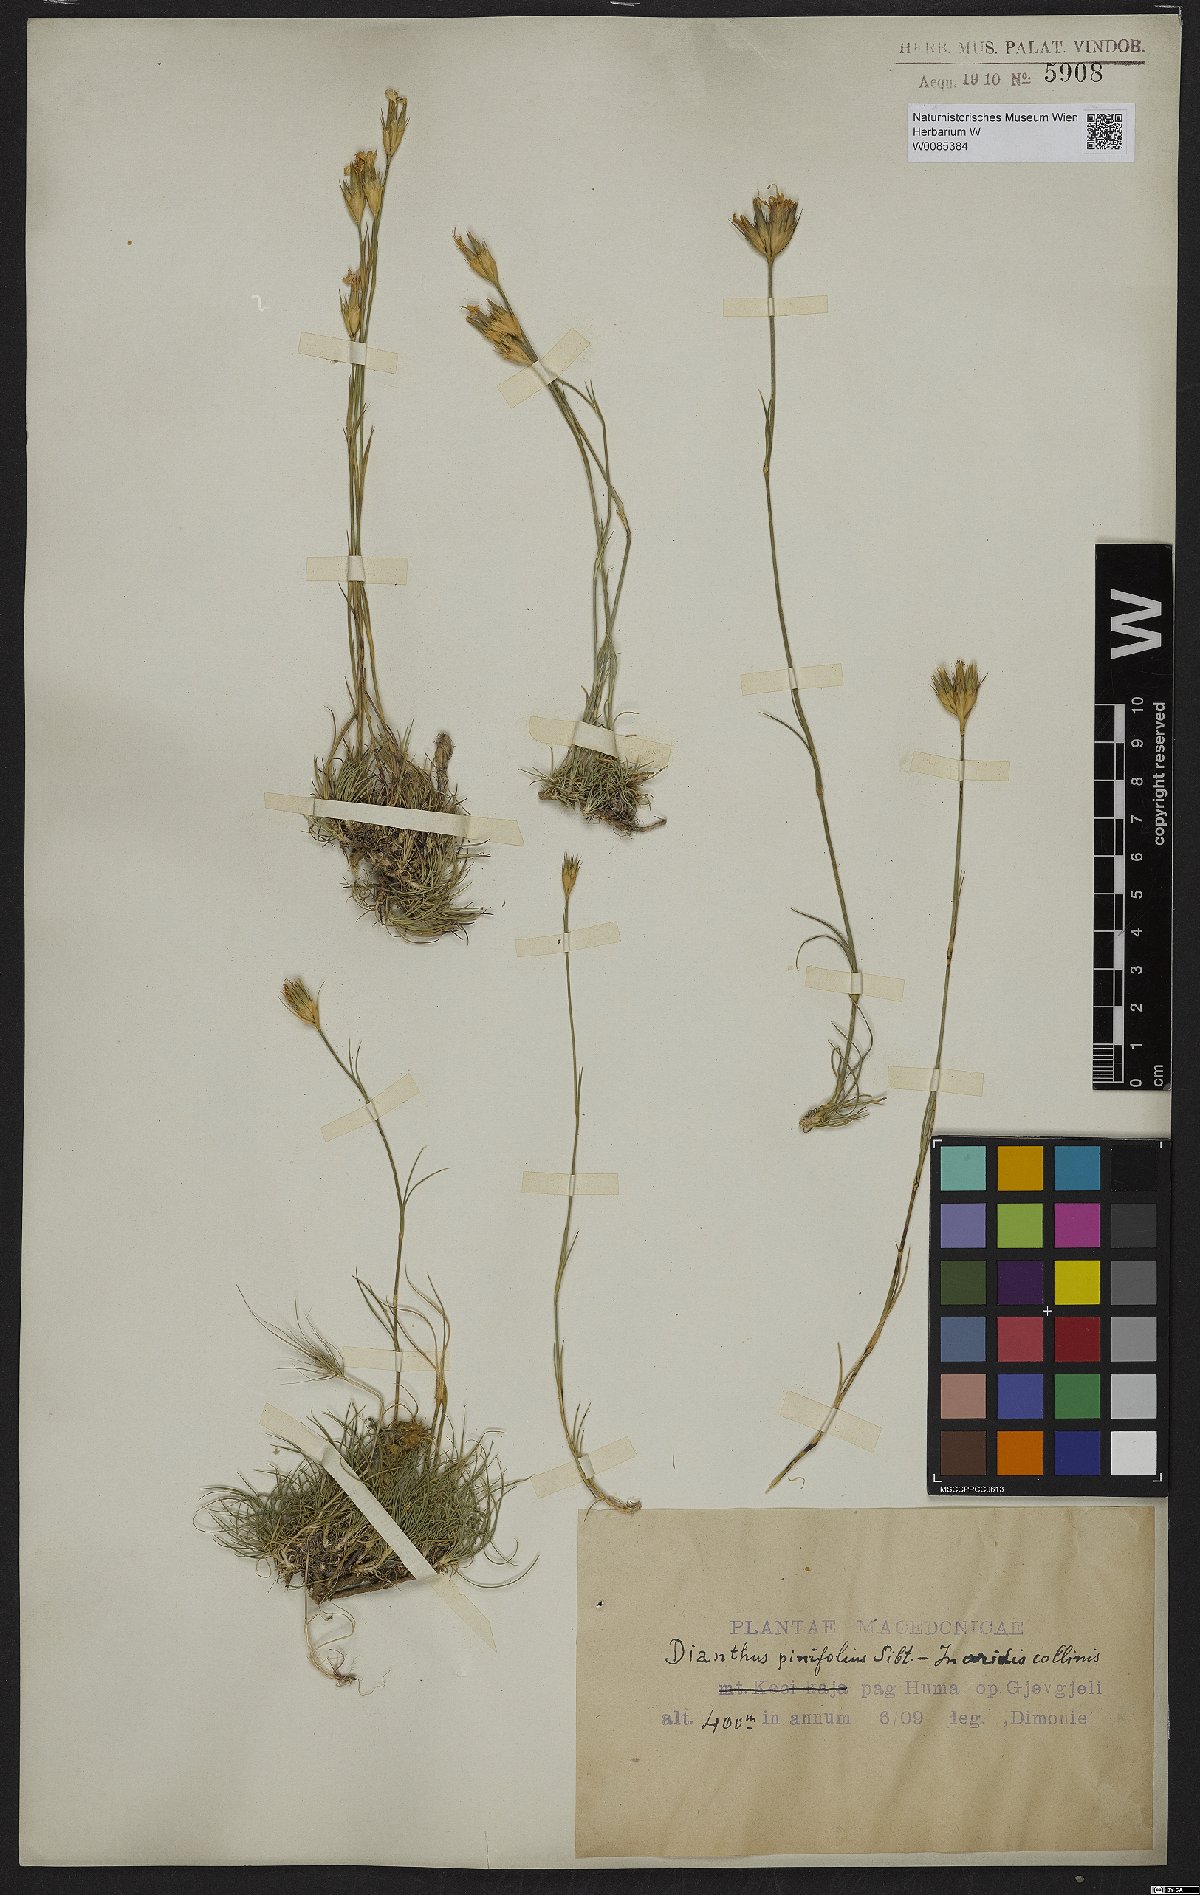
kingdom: Plantae
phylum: Tracheophyta
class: Magnoliopsida
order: Caryophyllales
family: Caryophyllaceae
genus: Dianthus
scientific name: Dianthus pinifolius
